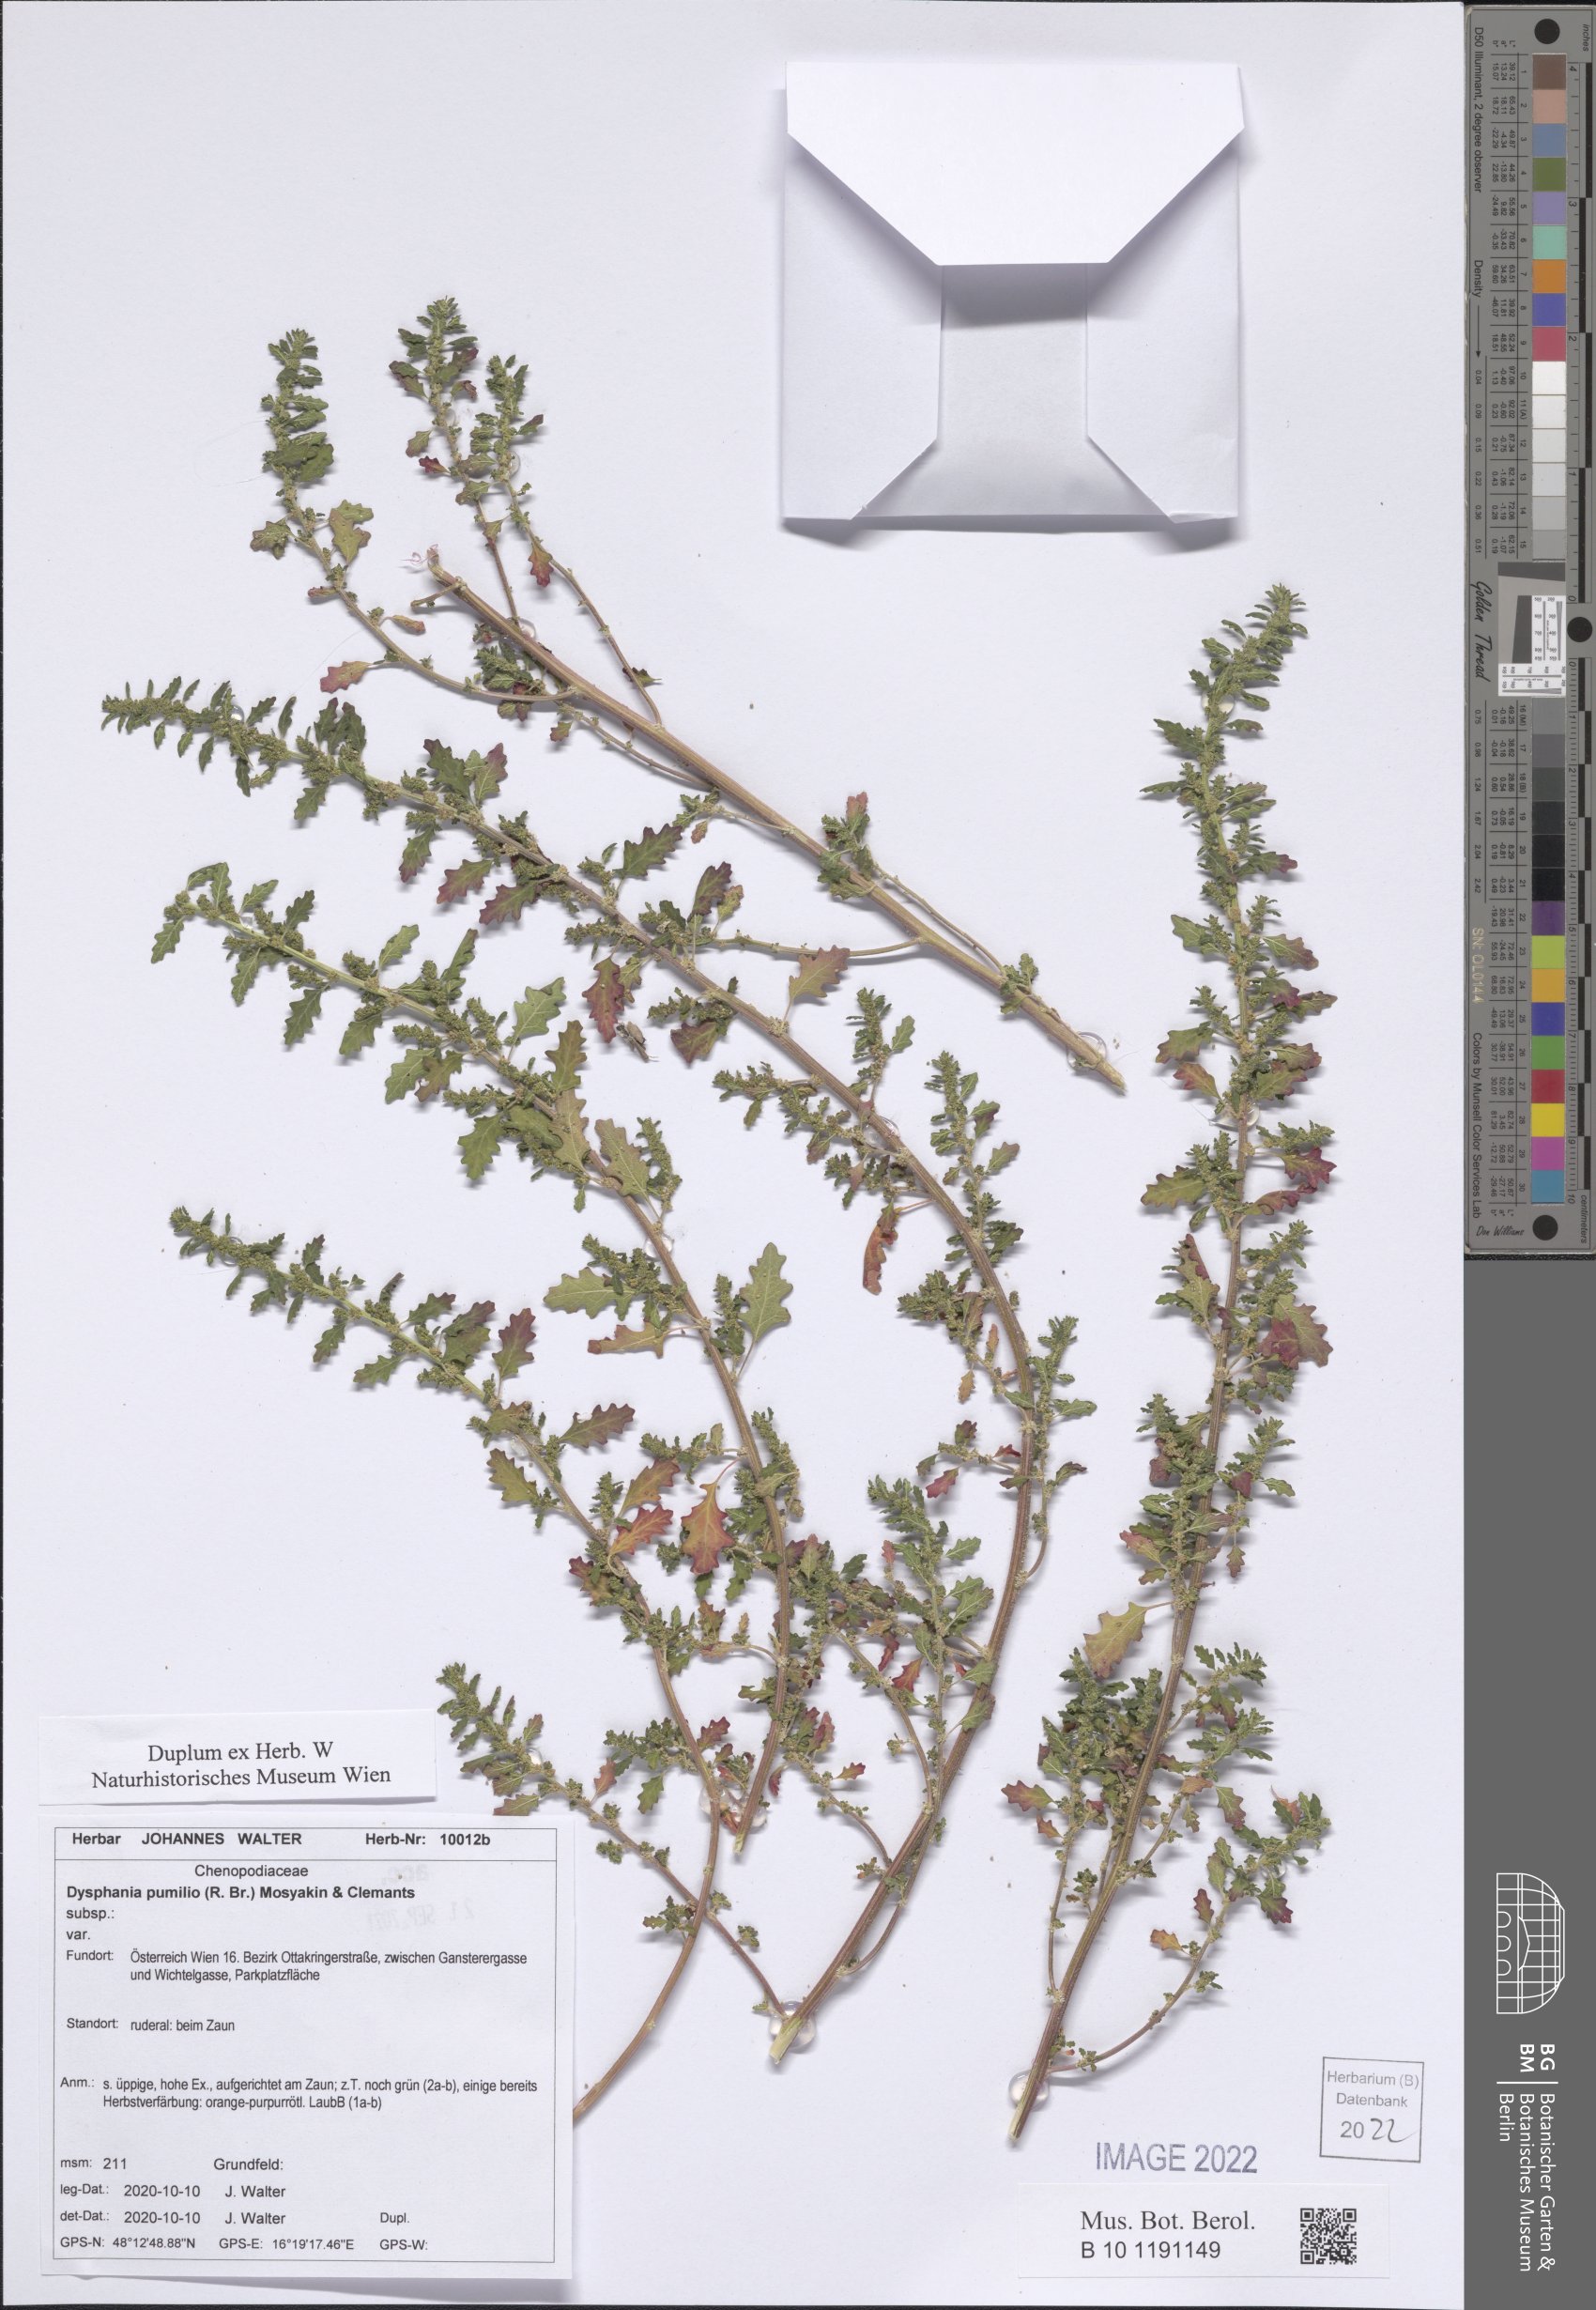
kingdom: Plantae
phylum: Tracheophyta
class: Magnoliopsida
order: Caryophyllales
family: Amaranthaceae
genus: Dysphania
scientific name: Dysphania pumilio
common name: Clammy goosefoot
